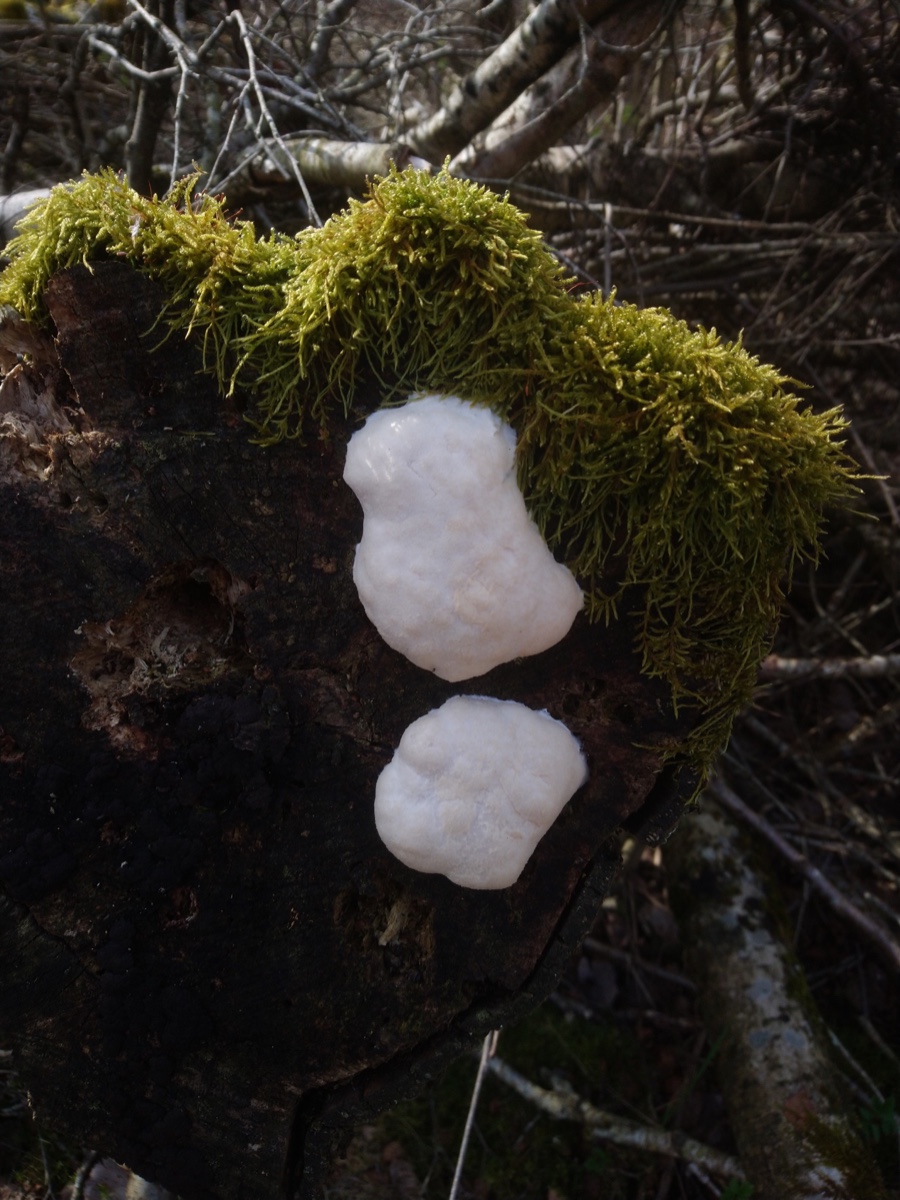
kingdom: Protozoa
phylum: Mycetozoa
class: Myxomycetes
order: Cribrariales
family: Tubiferaceae
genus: Reticularia
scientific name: Reticularia lycoperdon
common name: skinnende støvpude
